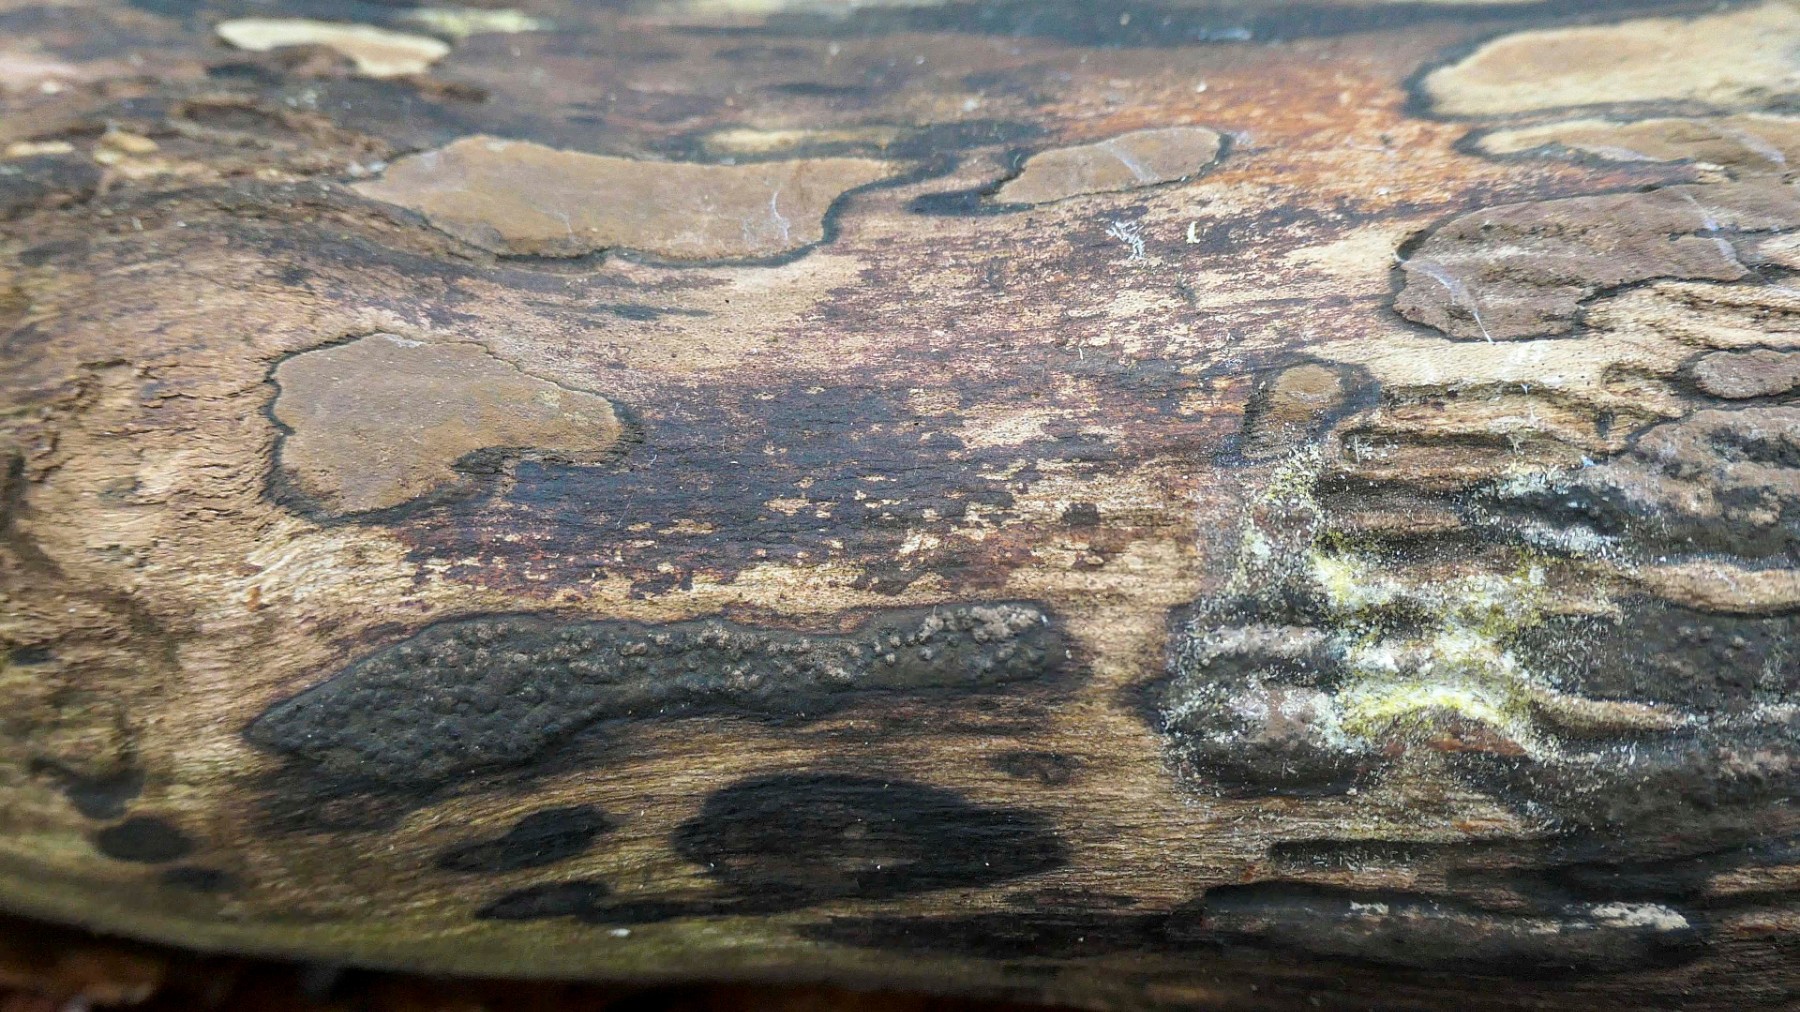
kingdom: Fungi
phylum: Ascomycota
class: Sordariomycetes
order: Xylariales
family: Hypoxylaceae
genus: Hypoxylon
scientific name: Hypoxylon petriniae
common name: nedsænket kulbær
